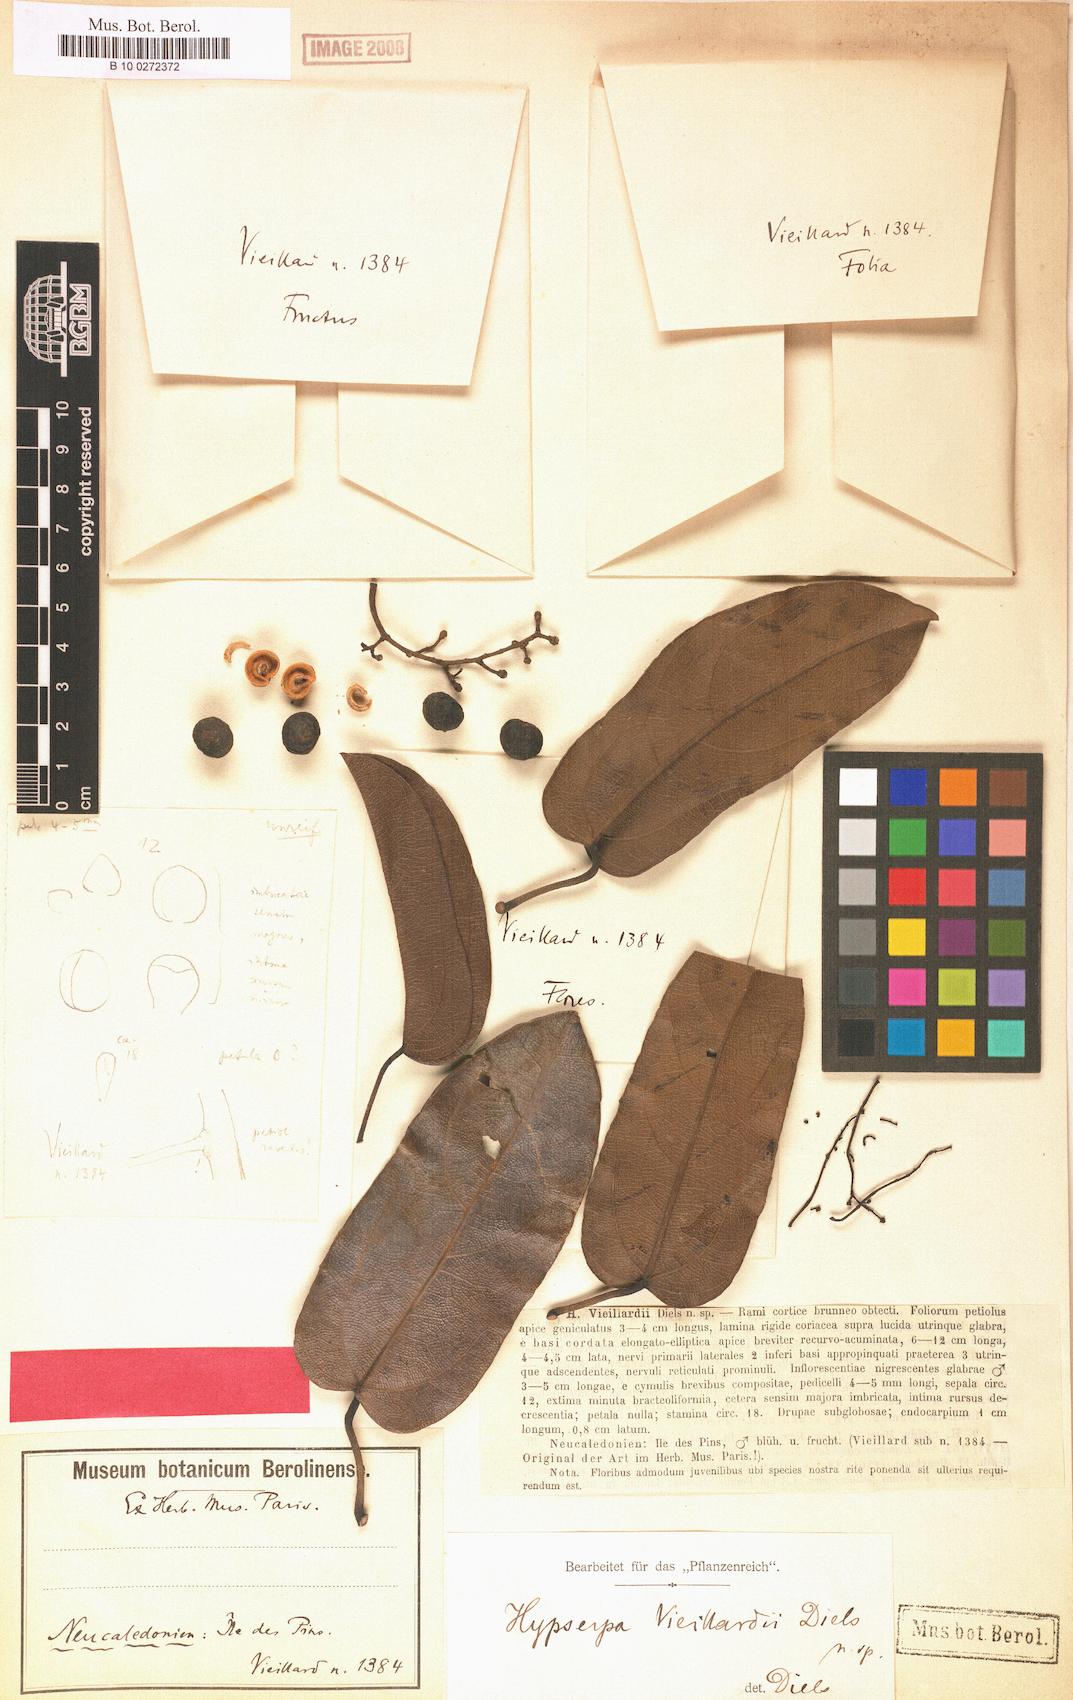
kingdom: Plantae
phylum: Tracheophyta
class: Magnoliopsida
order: Ranunculales
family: Menispermaceae
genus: Hypserpa
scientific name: Hypserpa vieillardii
